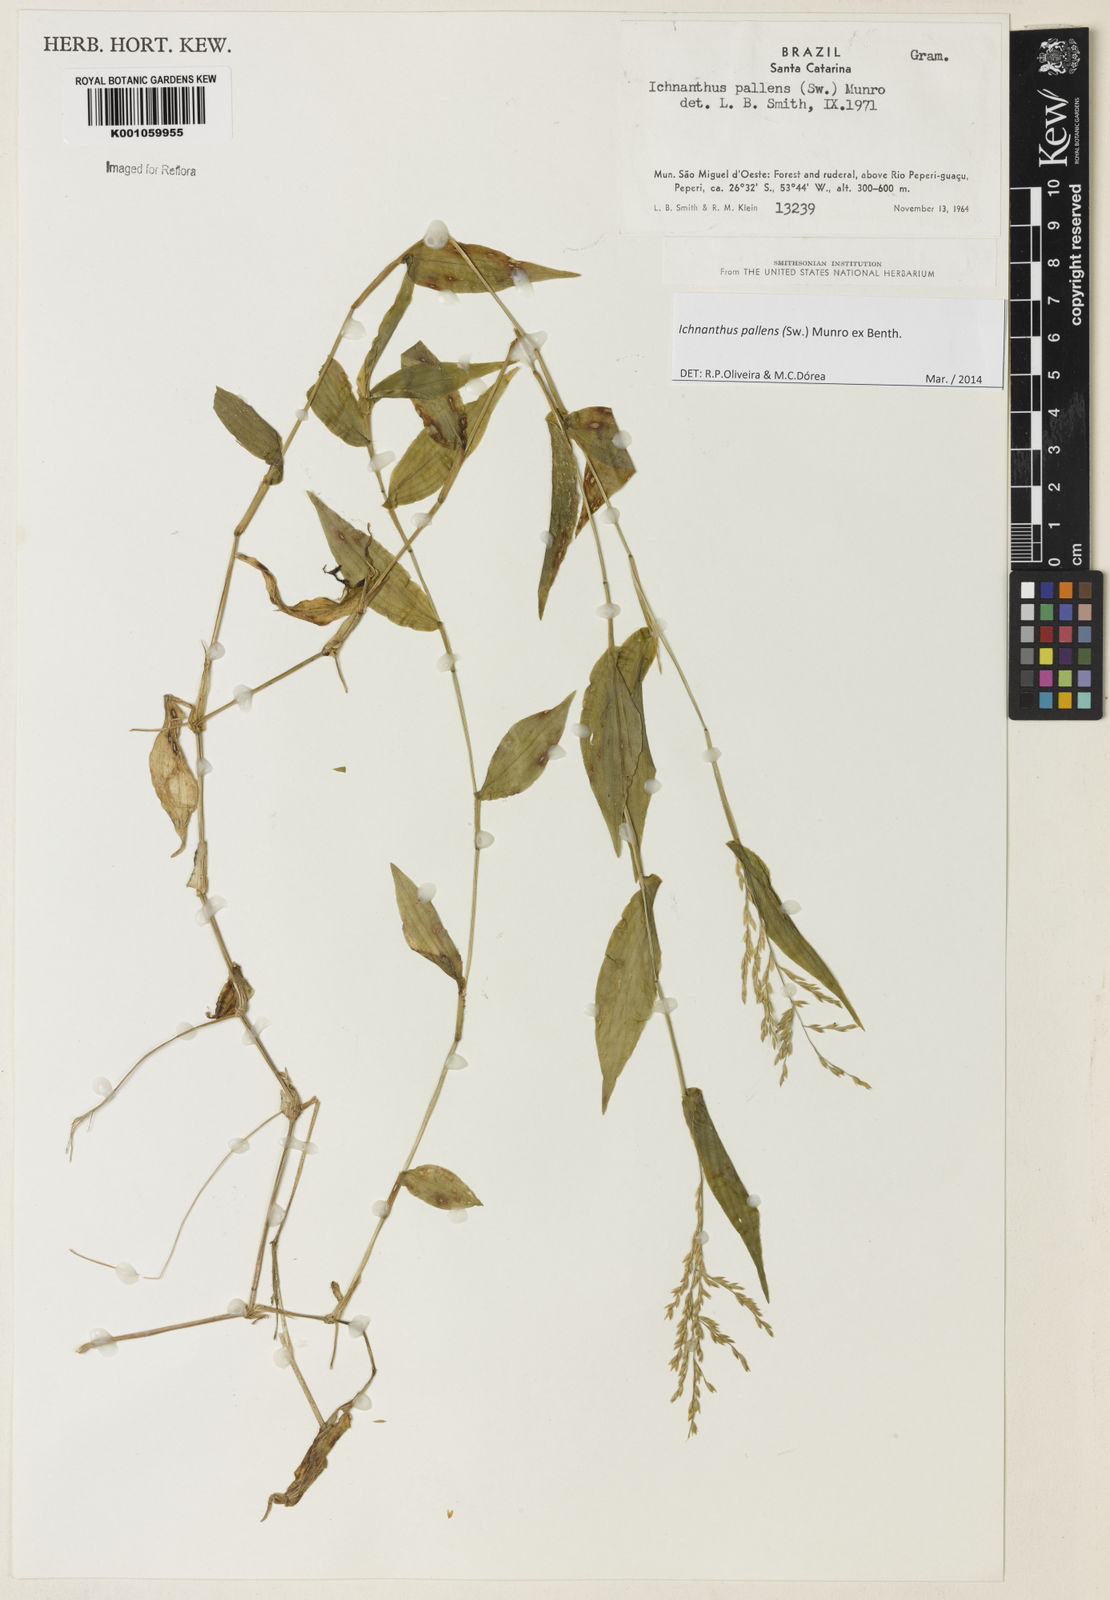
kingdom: Plantae
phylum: Tracheophyta
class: Liliopsida
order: Poales
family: Poaceae
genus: Ichnanthus
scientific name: Ichnanthus pallens
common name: Water grass
